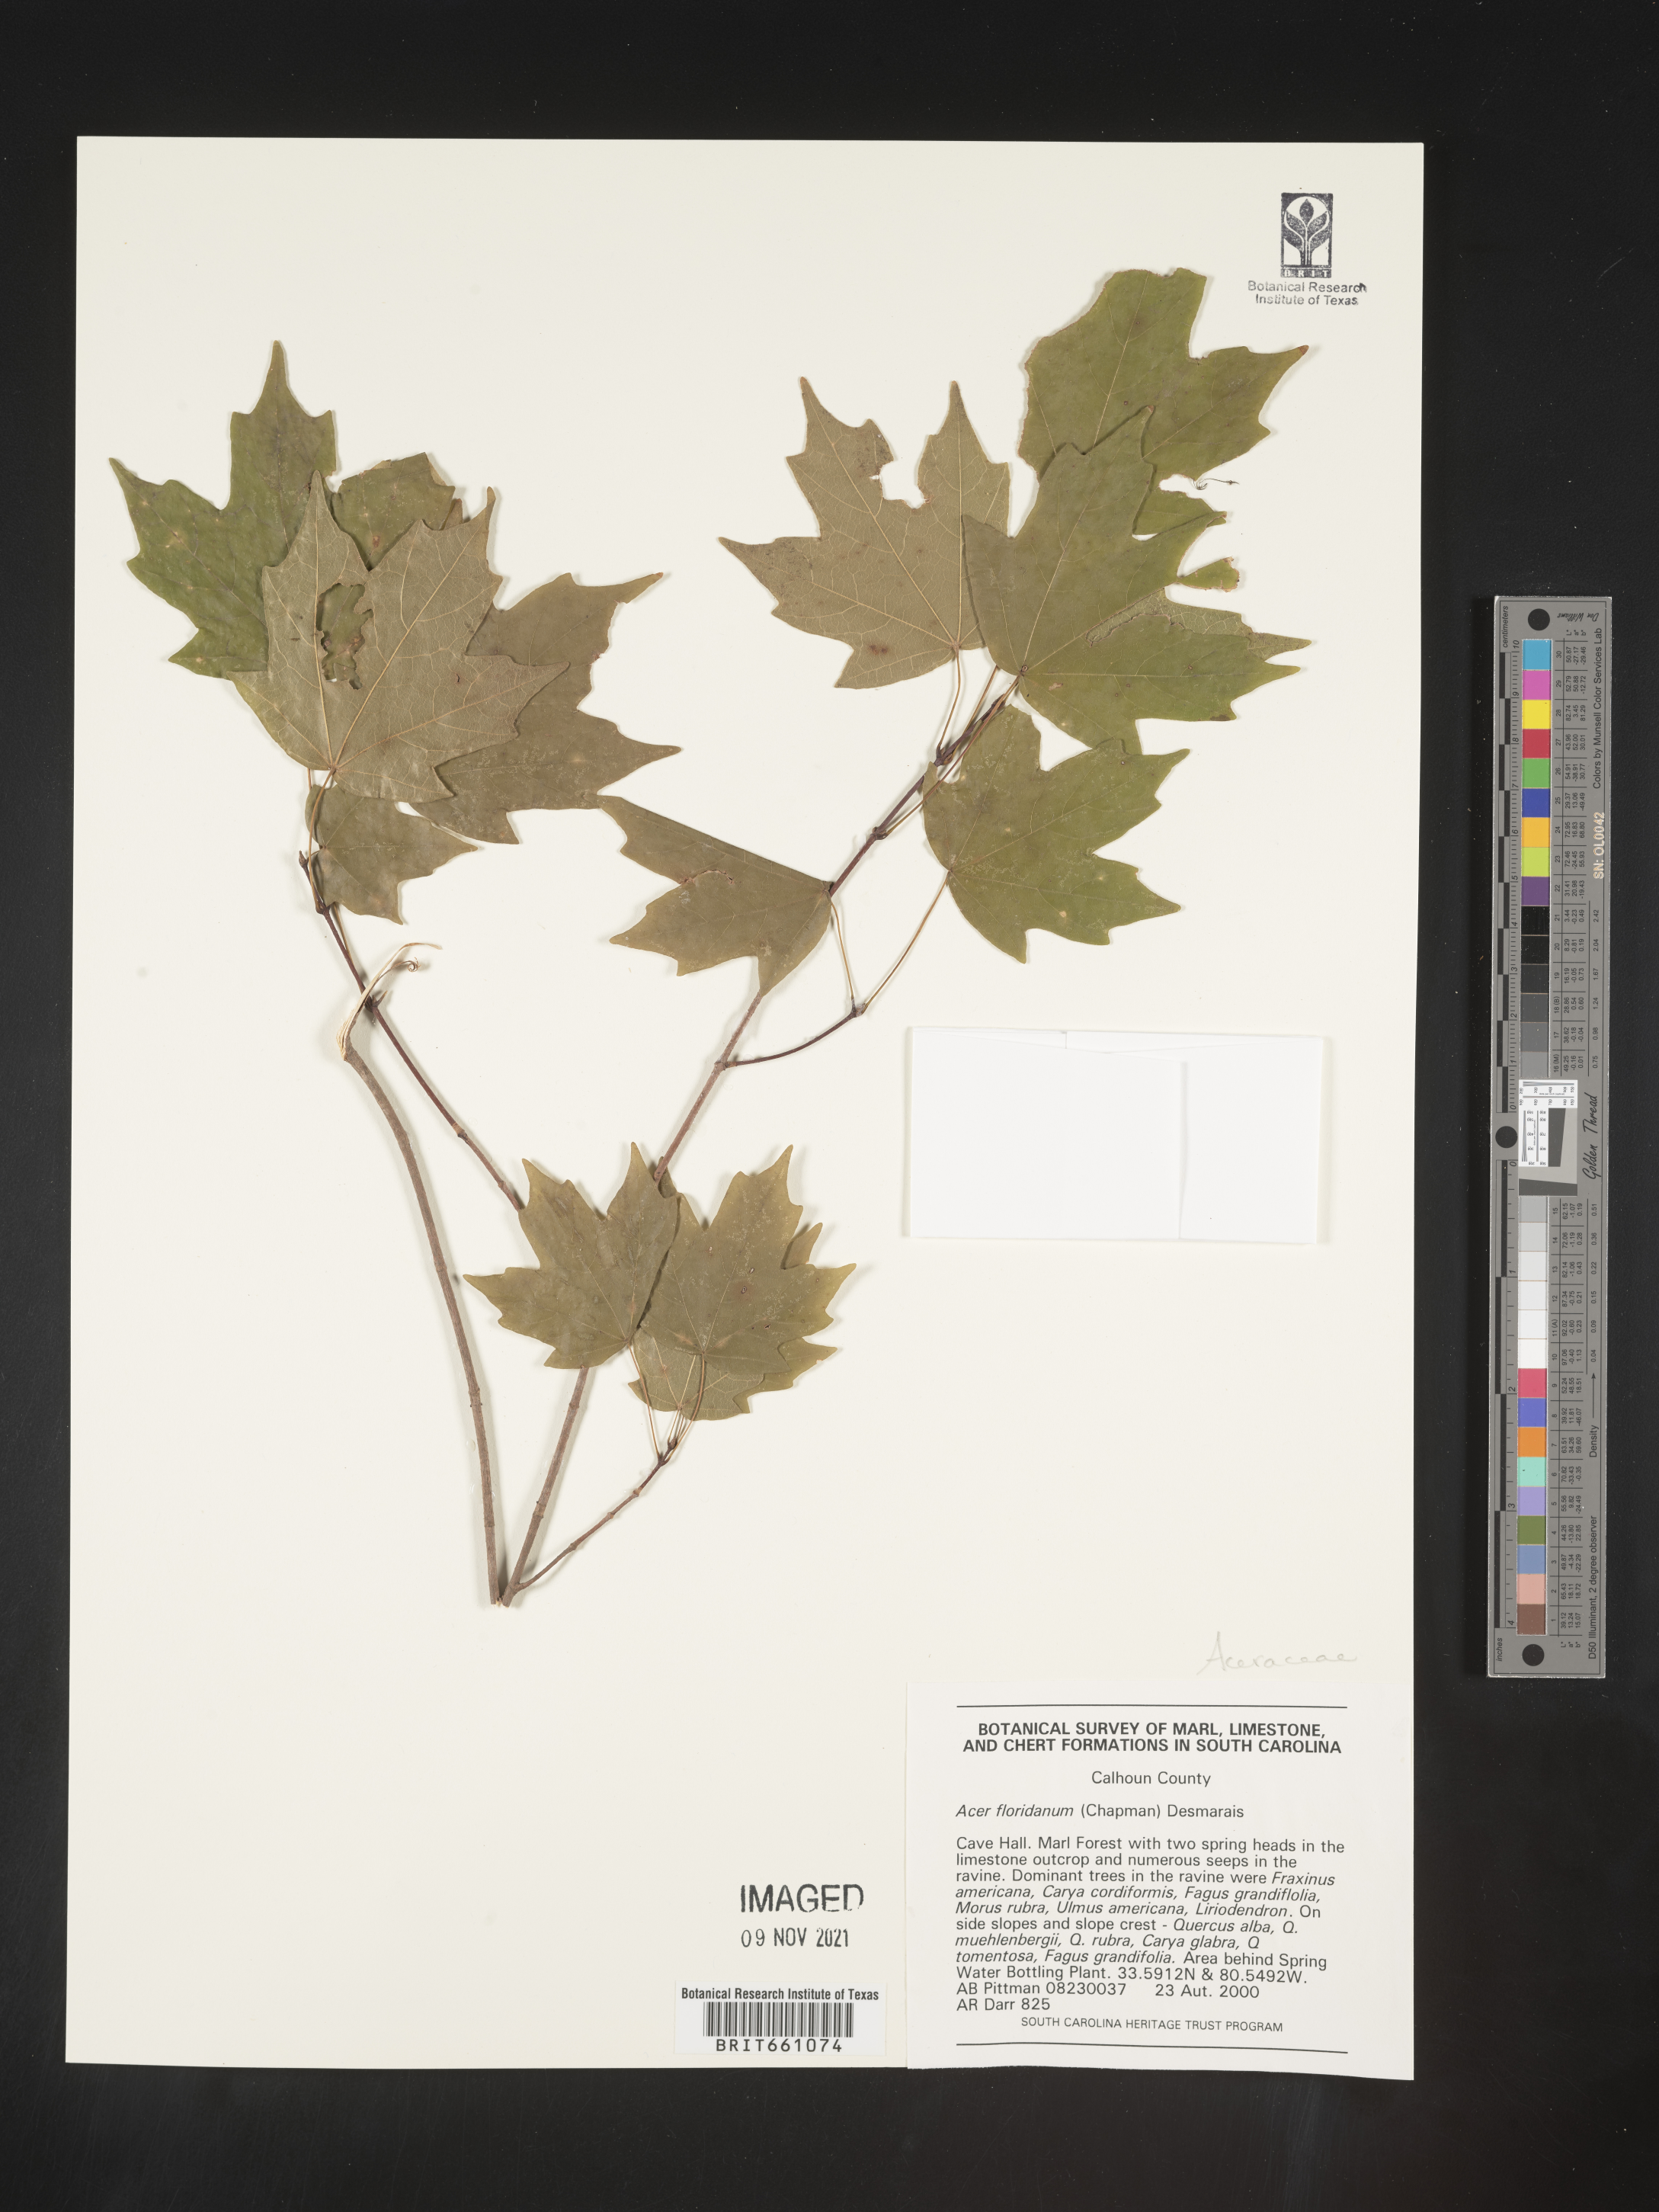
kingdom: Plantae
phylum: Tracheophyta
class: Magnoliopsida
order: Sapindales
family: Sapindaceae
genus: Acer
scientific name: Acer barbatum
